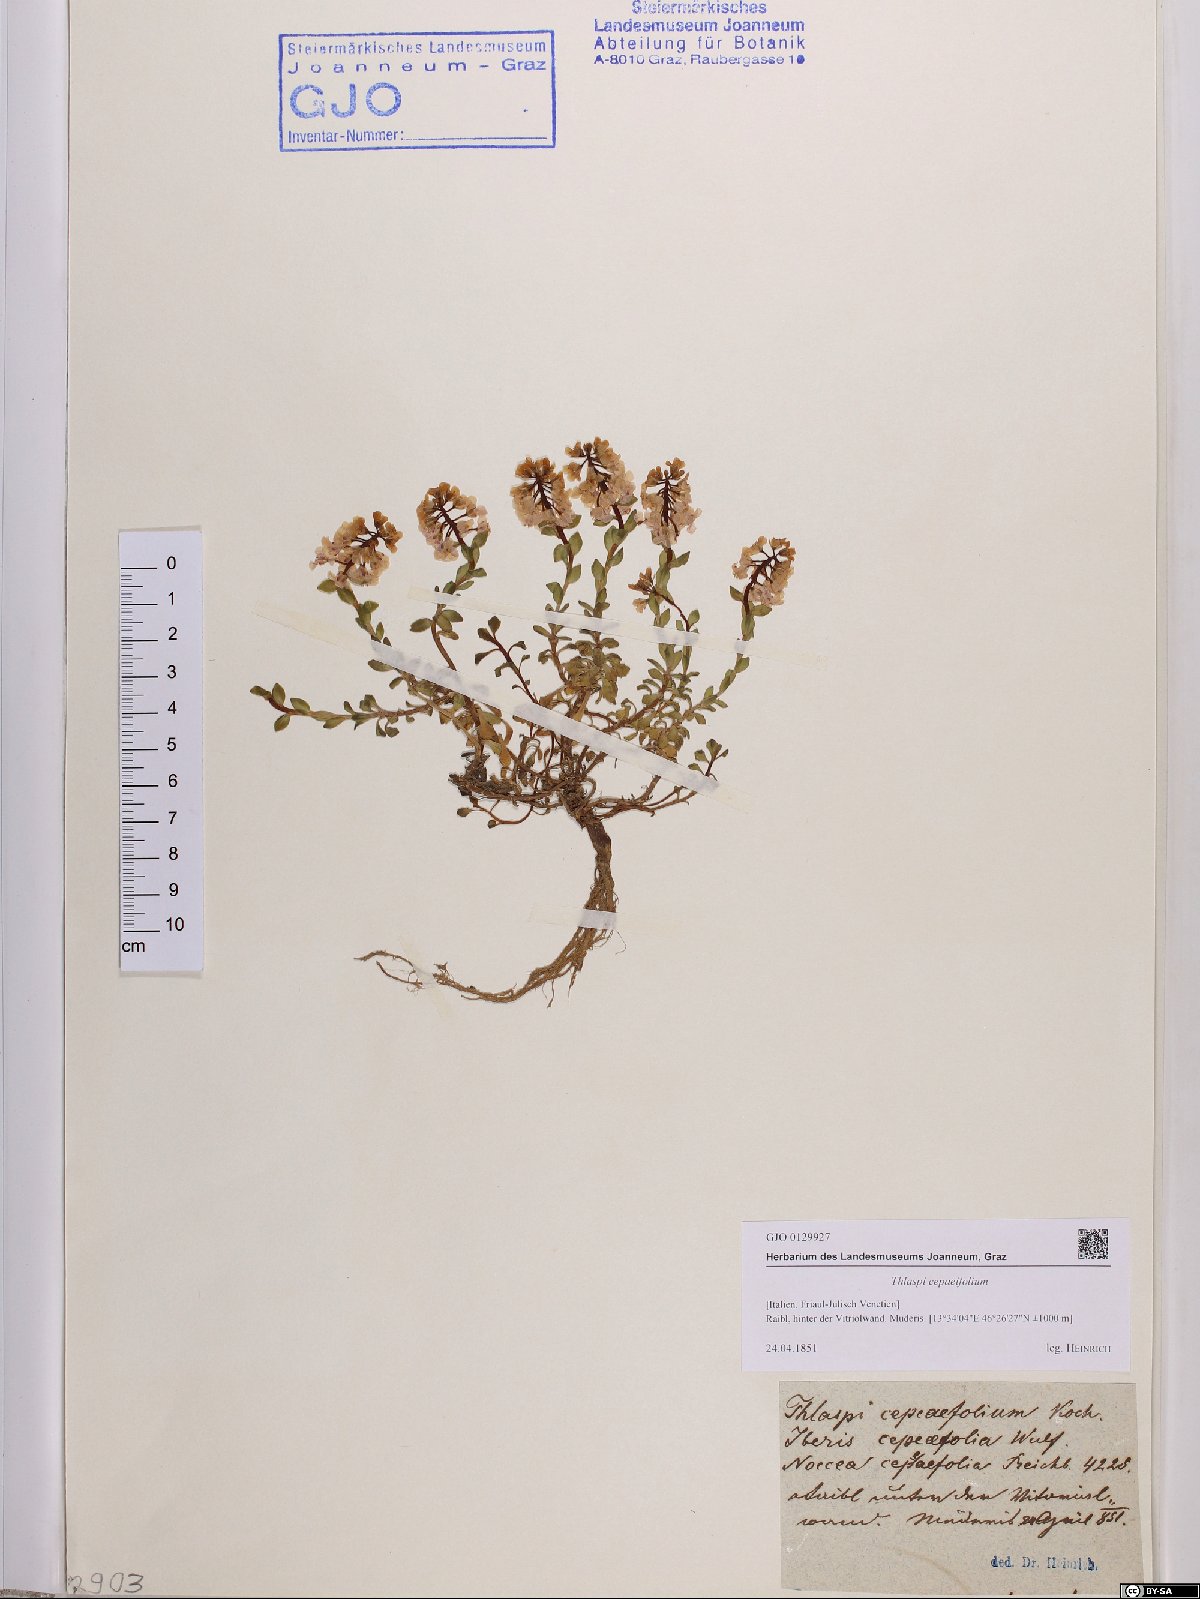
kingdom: Plantae
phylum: Tracheophyta
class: Magnoliopsida
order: Brassicales
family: Brassicaceae
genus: Noccaea
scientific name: Noccaea cepaeifolia
